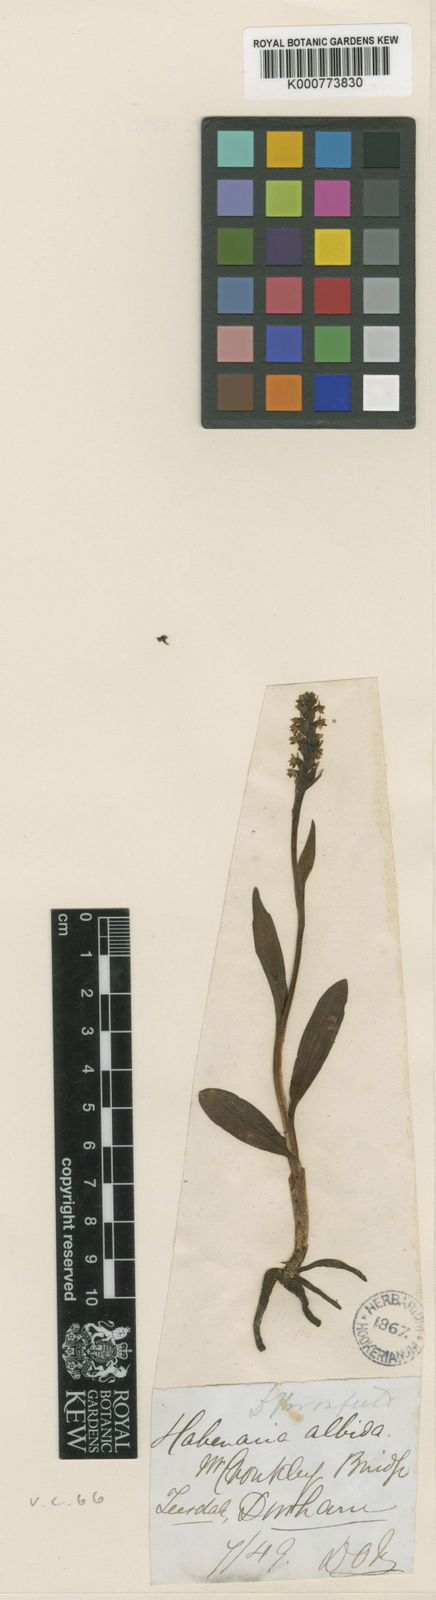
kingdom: Plantae
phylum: Tracheophyta
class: Liliopsida
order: Asparagales
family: Orchidaceae
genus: Pseudorchis
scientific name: Pseudorchis
